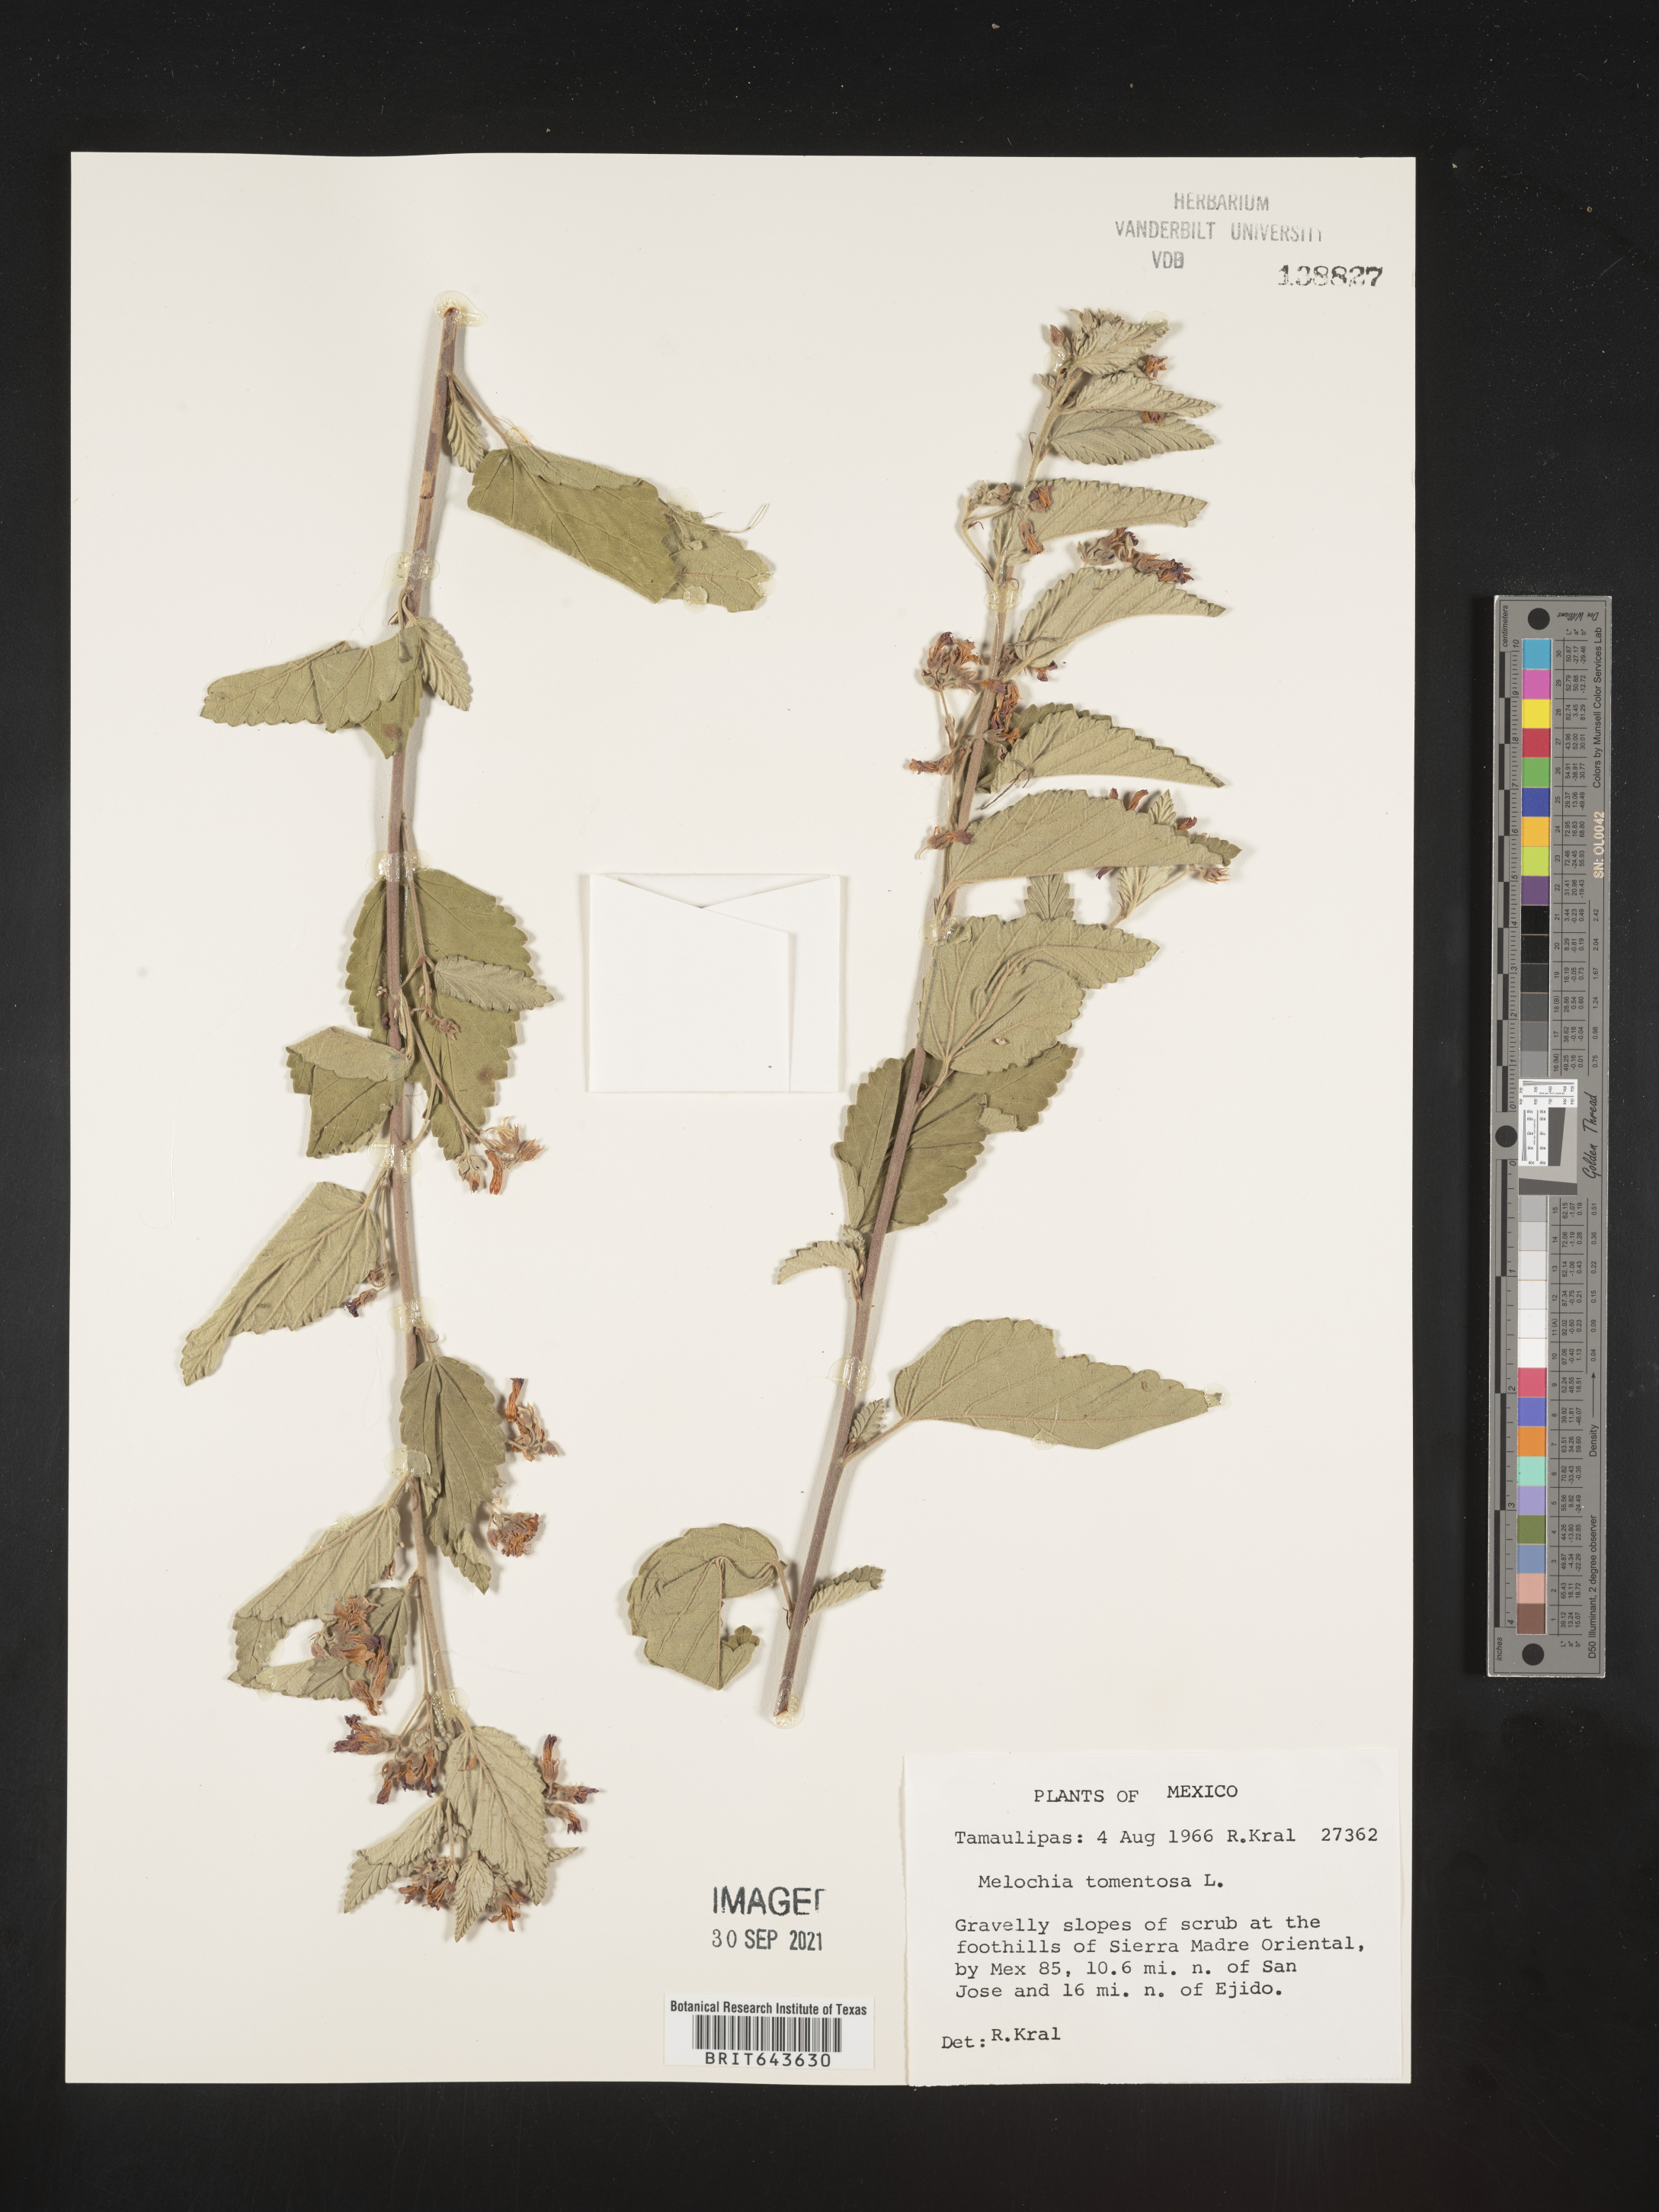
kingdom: Plantae
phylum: Tracheophyta
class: Magnoliopsida
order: Malvales
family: Malvaceae
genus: Melochia
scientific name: Melochia
